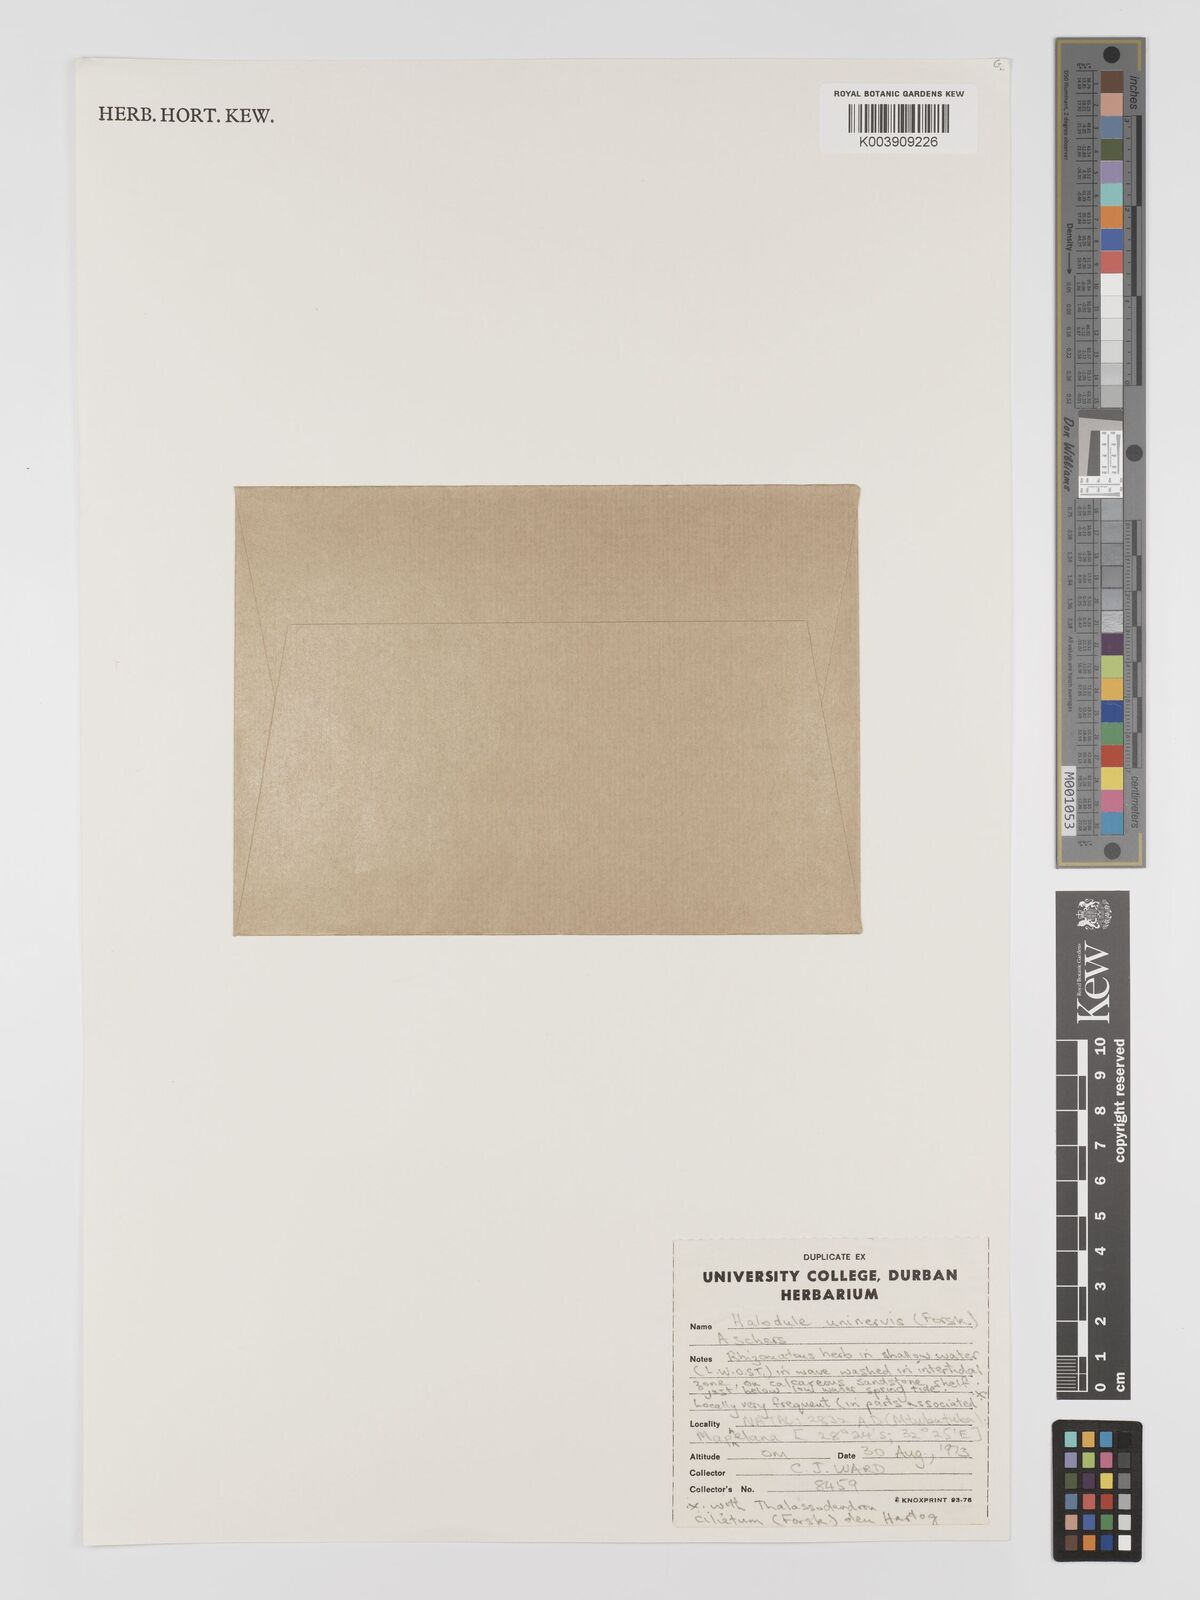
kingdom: Plantae
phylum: Tracheophyta
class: Liliopsida
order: Alismatales
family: Cymodoceaceae
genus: Halodule
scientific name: Halodule uninervis
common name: Narrowleaf seagrass
